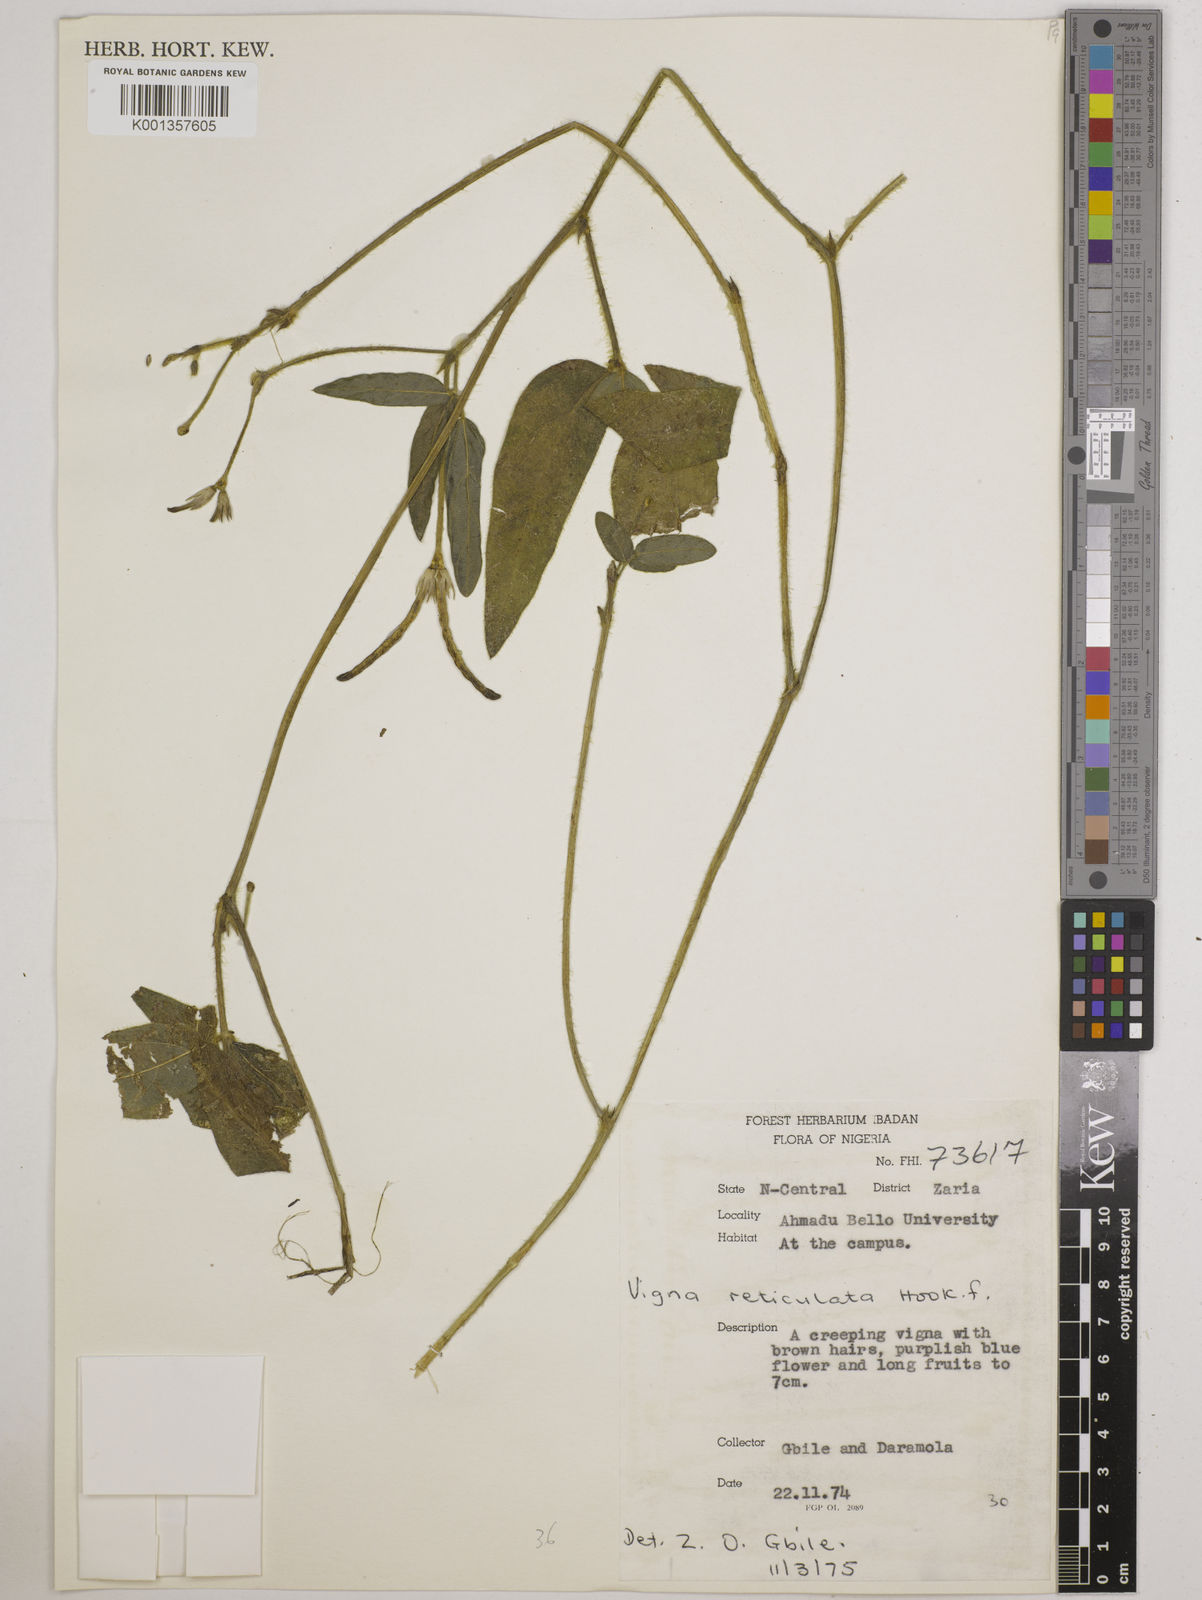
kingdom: Plantae
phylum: Tracheophyta
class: Magnoliopsida
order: Fabales
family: Fabaceae
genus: Vigna
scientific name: Vigna reticulata
